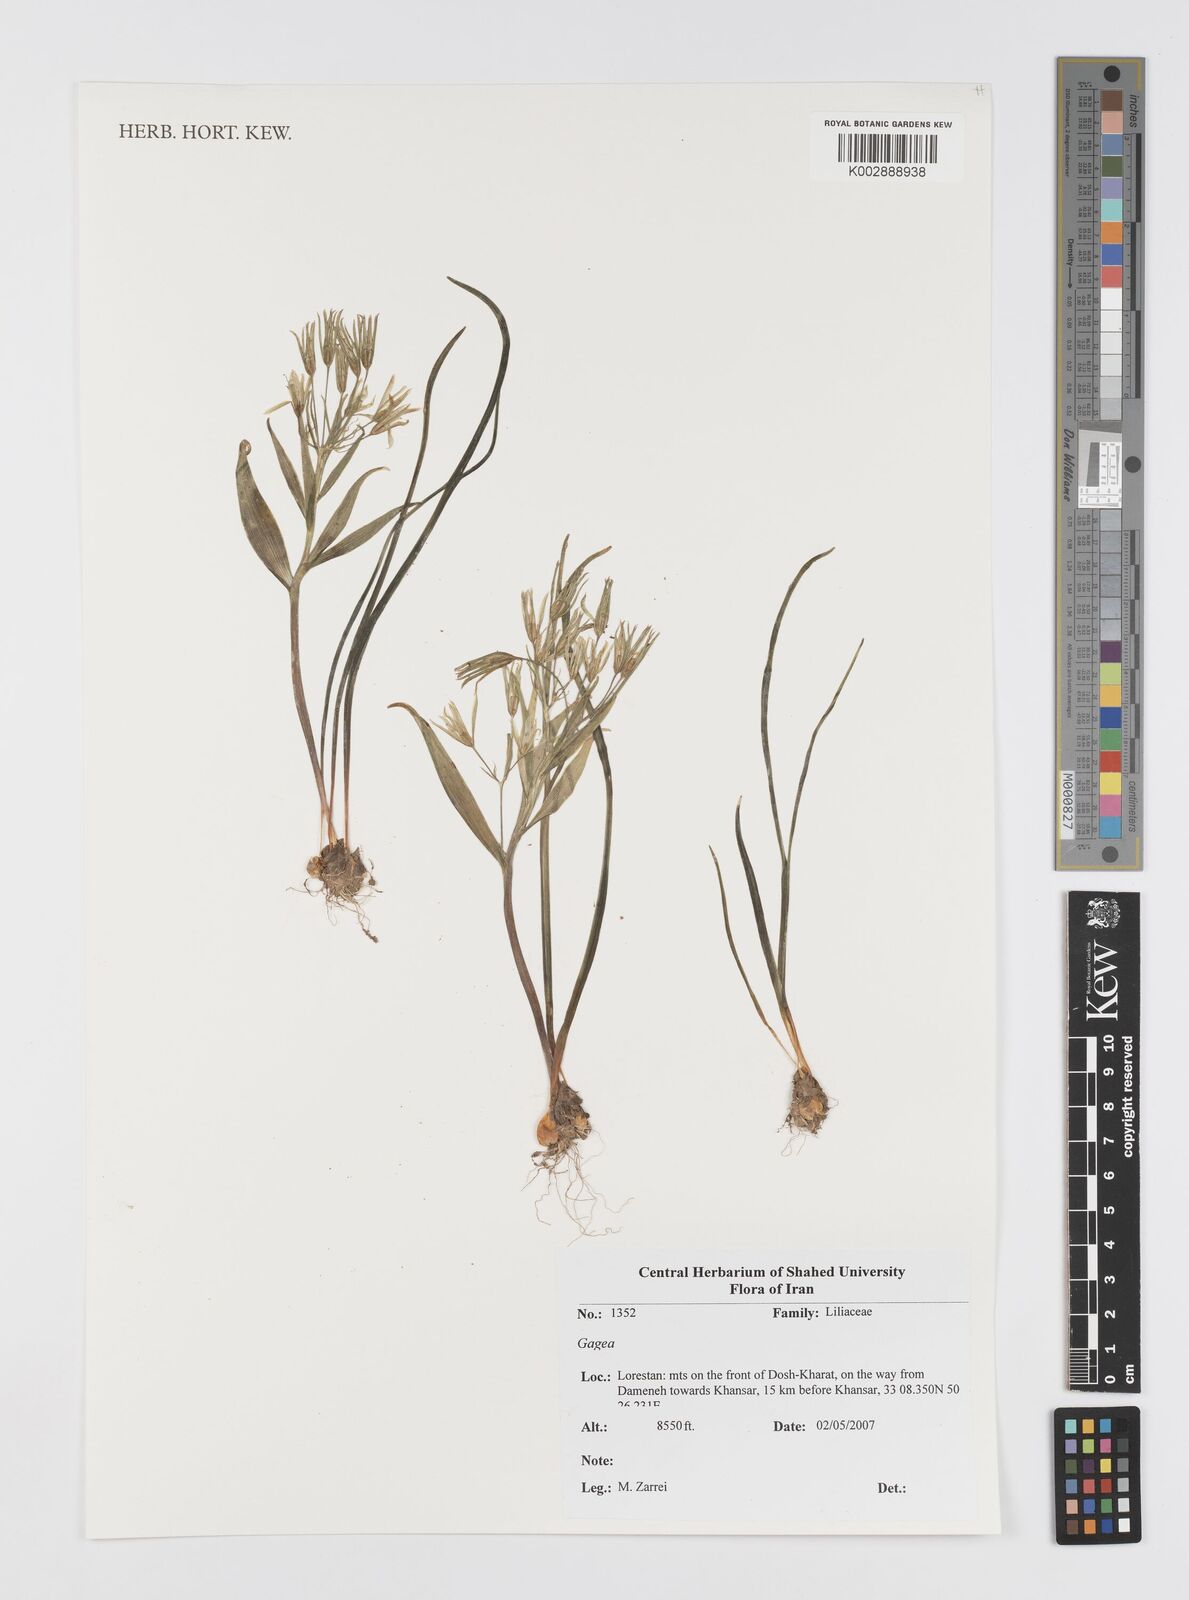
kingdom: Plantae
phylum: Tracheophyta
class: Liliopsida
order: Liliales
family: Liliaceae
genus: Gagea
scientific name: Gagea
